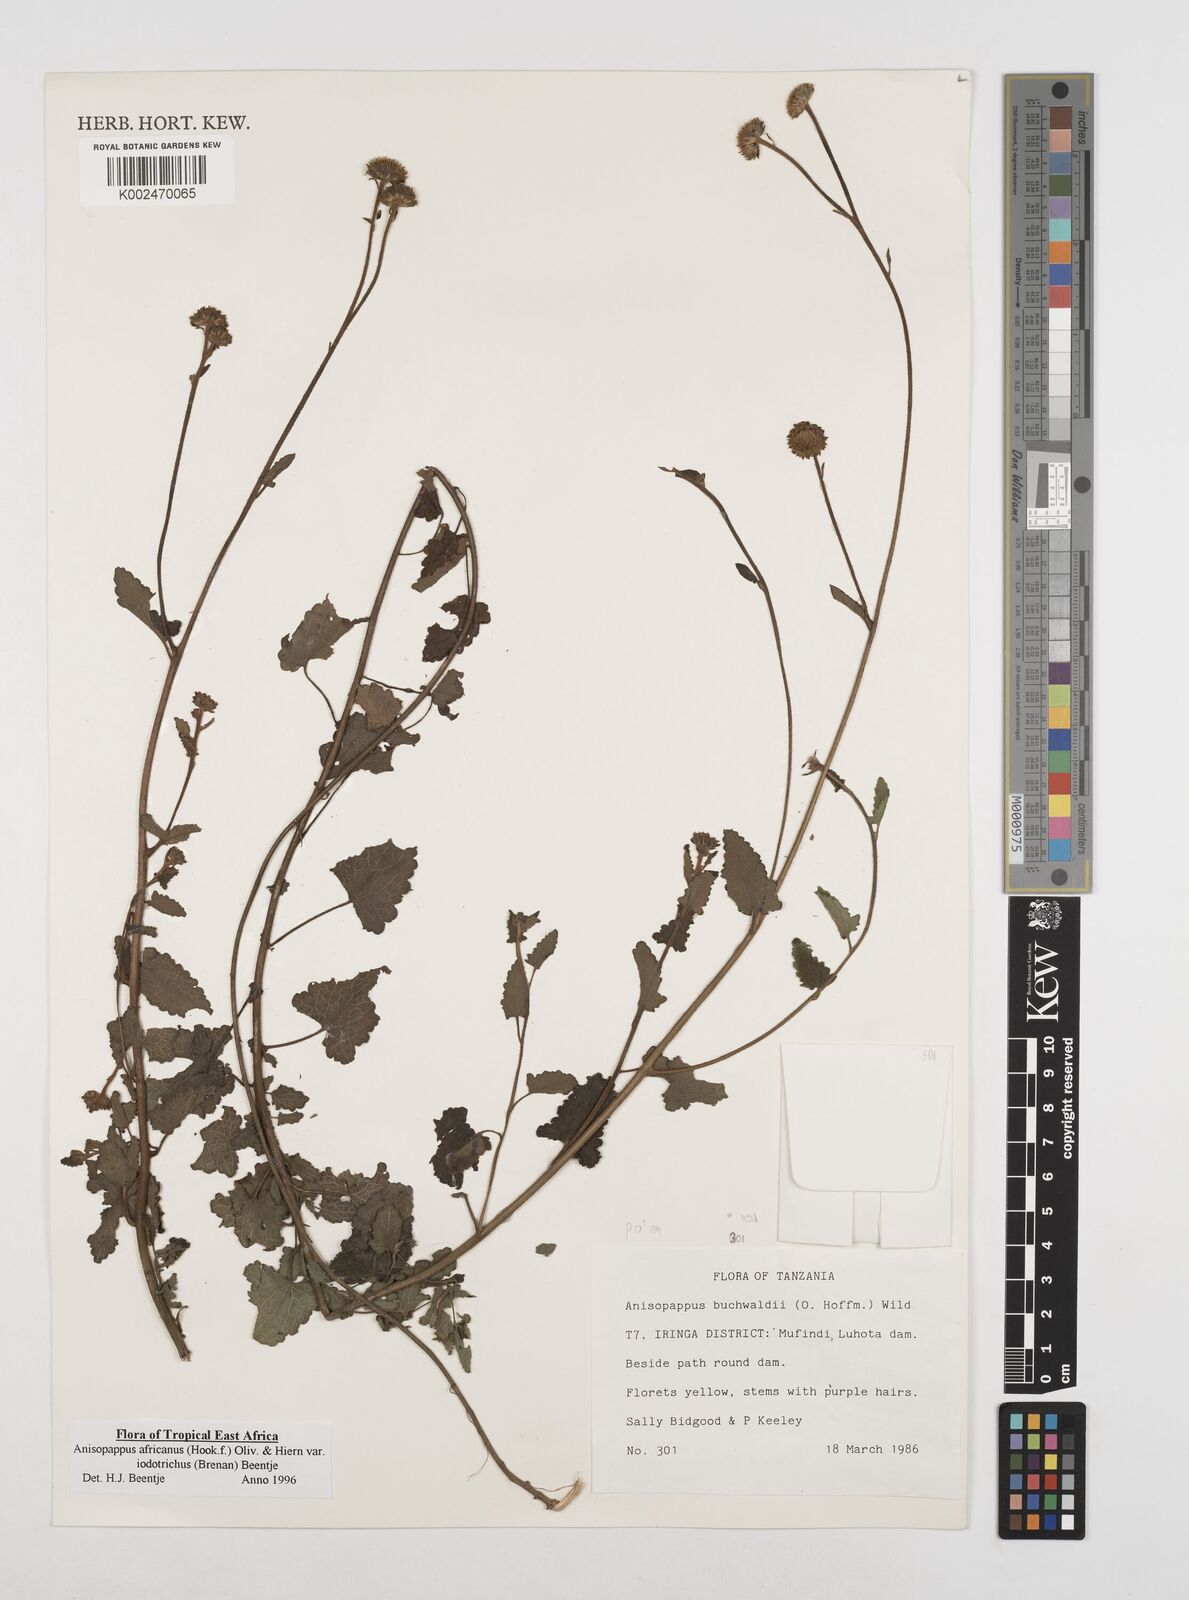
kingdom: Plantae
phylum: Tracheophyta
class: Magnoliopsida
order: Asterales
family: Asteraceae
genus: Anisopappus
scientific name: Anisopappus buchwaldii
